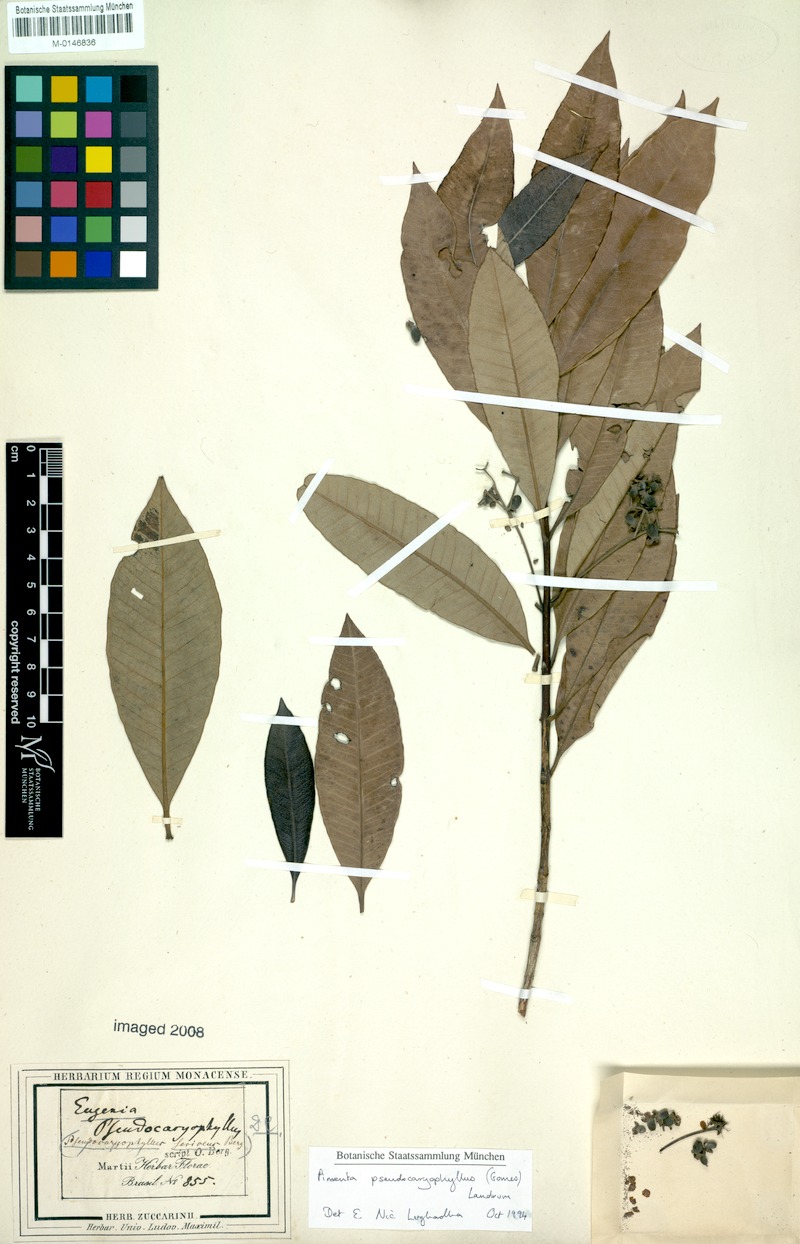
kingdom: Plantae
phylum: Tracheophyta
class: Magnoliopsida
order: Myrtales
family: Myrtaceae
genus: Pimenta
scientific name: Pimenta pseudocaryophyllus
